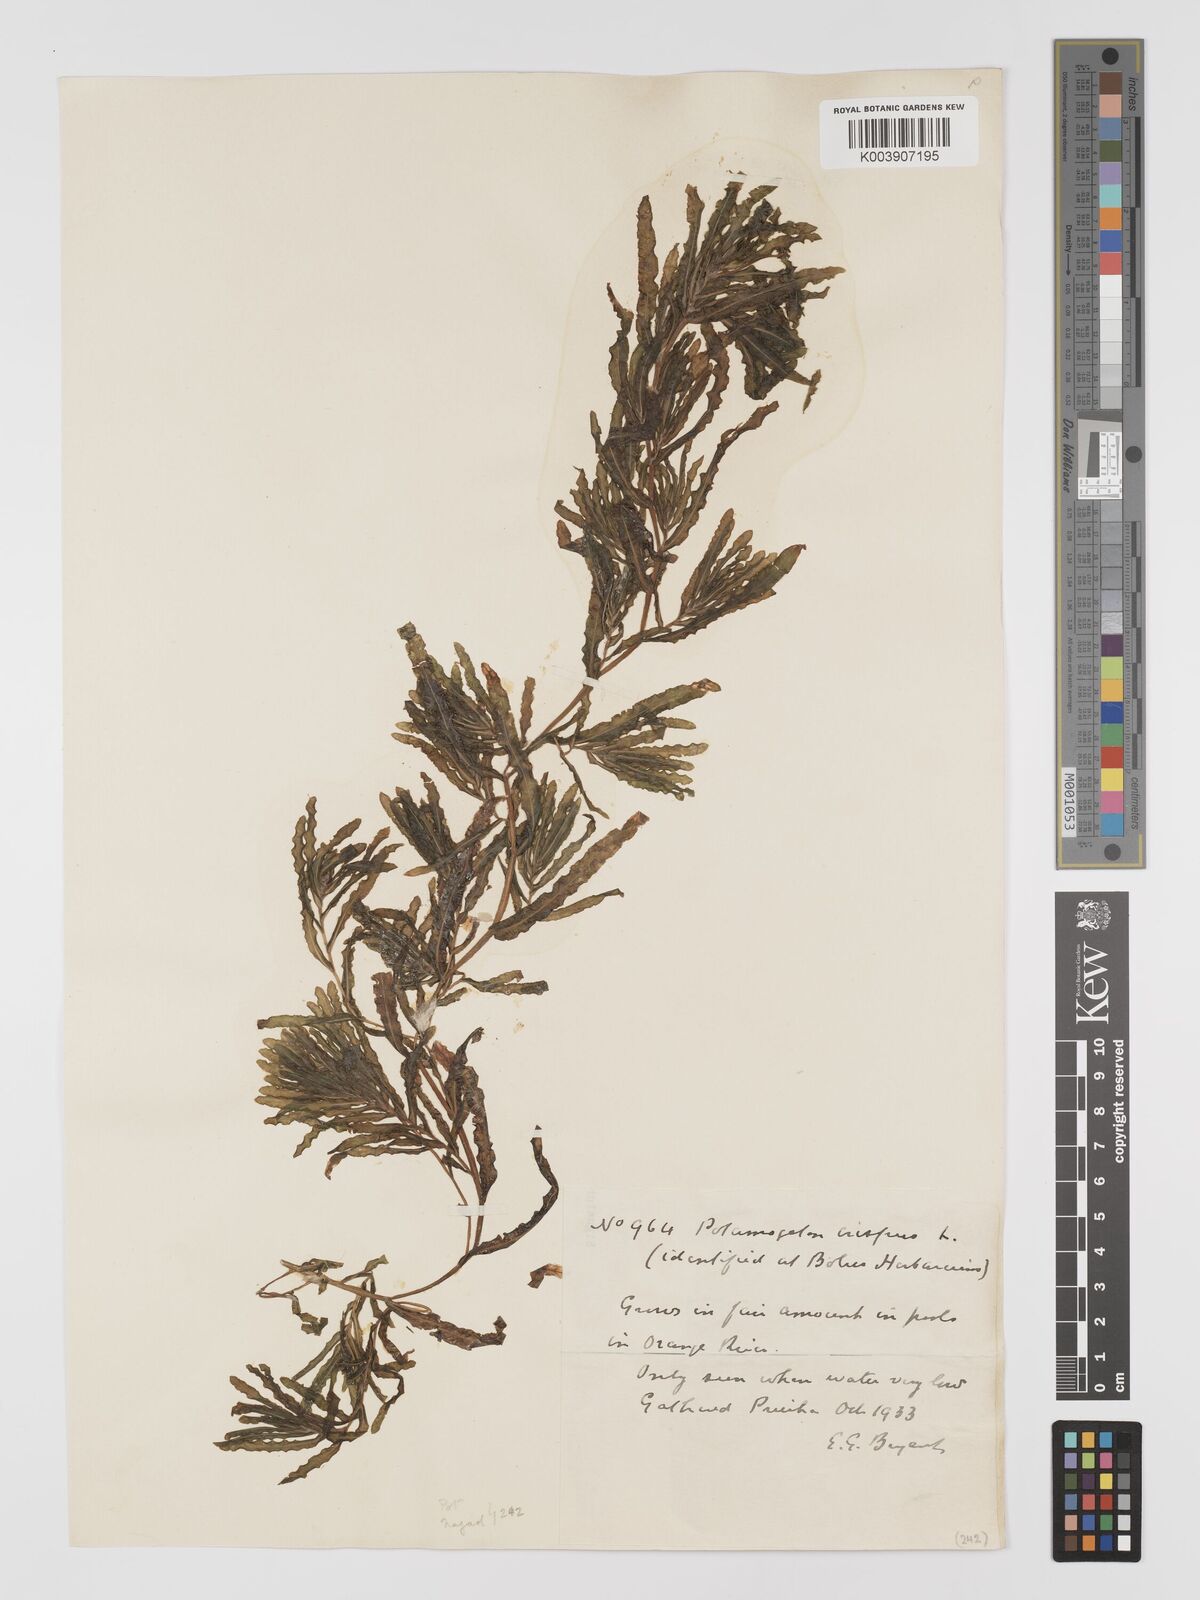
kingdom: Plantae
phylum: Tracheophyta
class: Liliopsida
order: Alismatales
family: Potamogetonaceae
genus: Potamogeton
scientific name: Potamogeton crispus
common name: Curled pondweed
